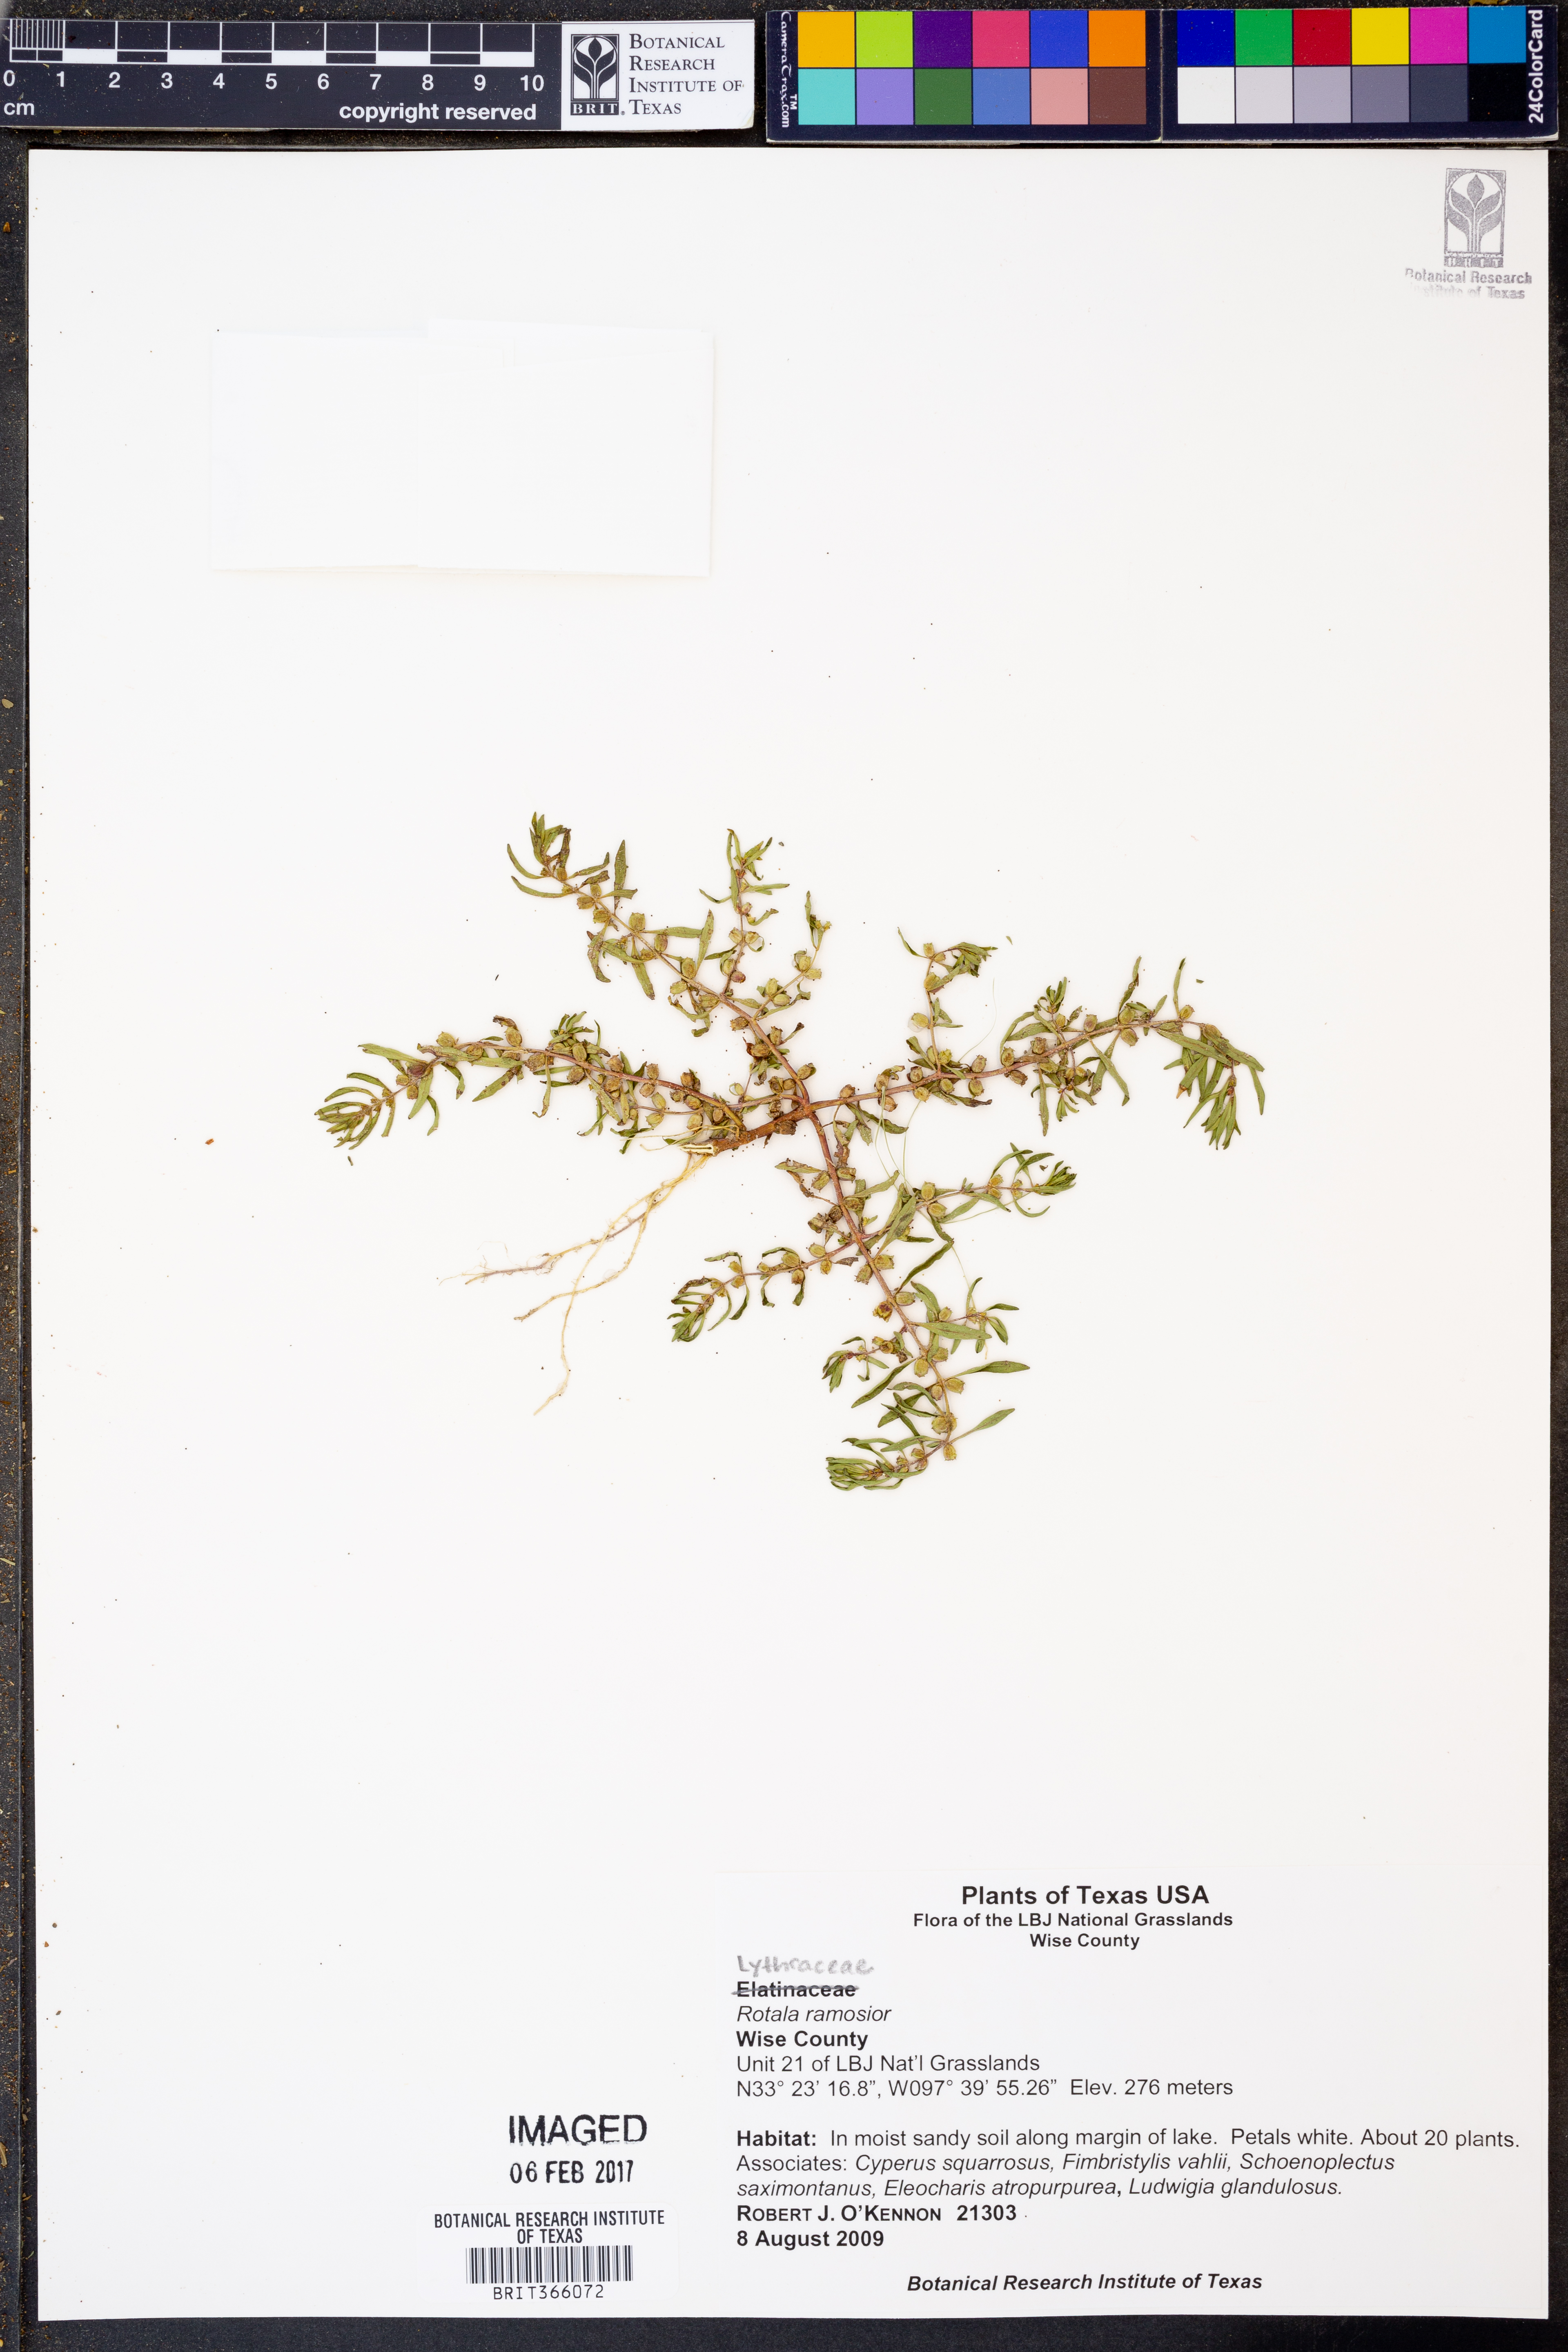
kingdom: Plantae
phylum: Tracheophyta
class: Magnoliopsida
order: Myrtales
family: Lythraceae
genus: Rotala
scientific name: Rotala ramosior
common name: Lowland rotala
